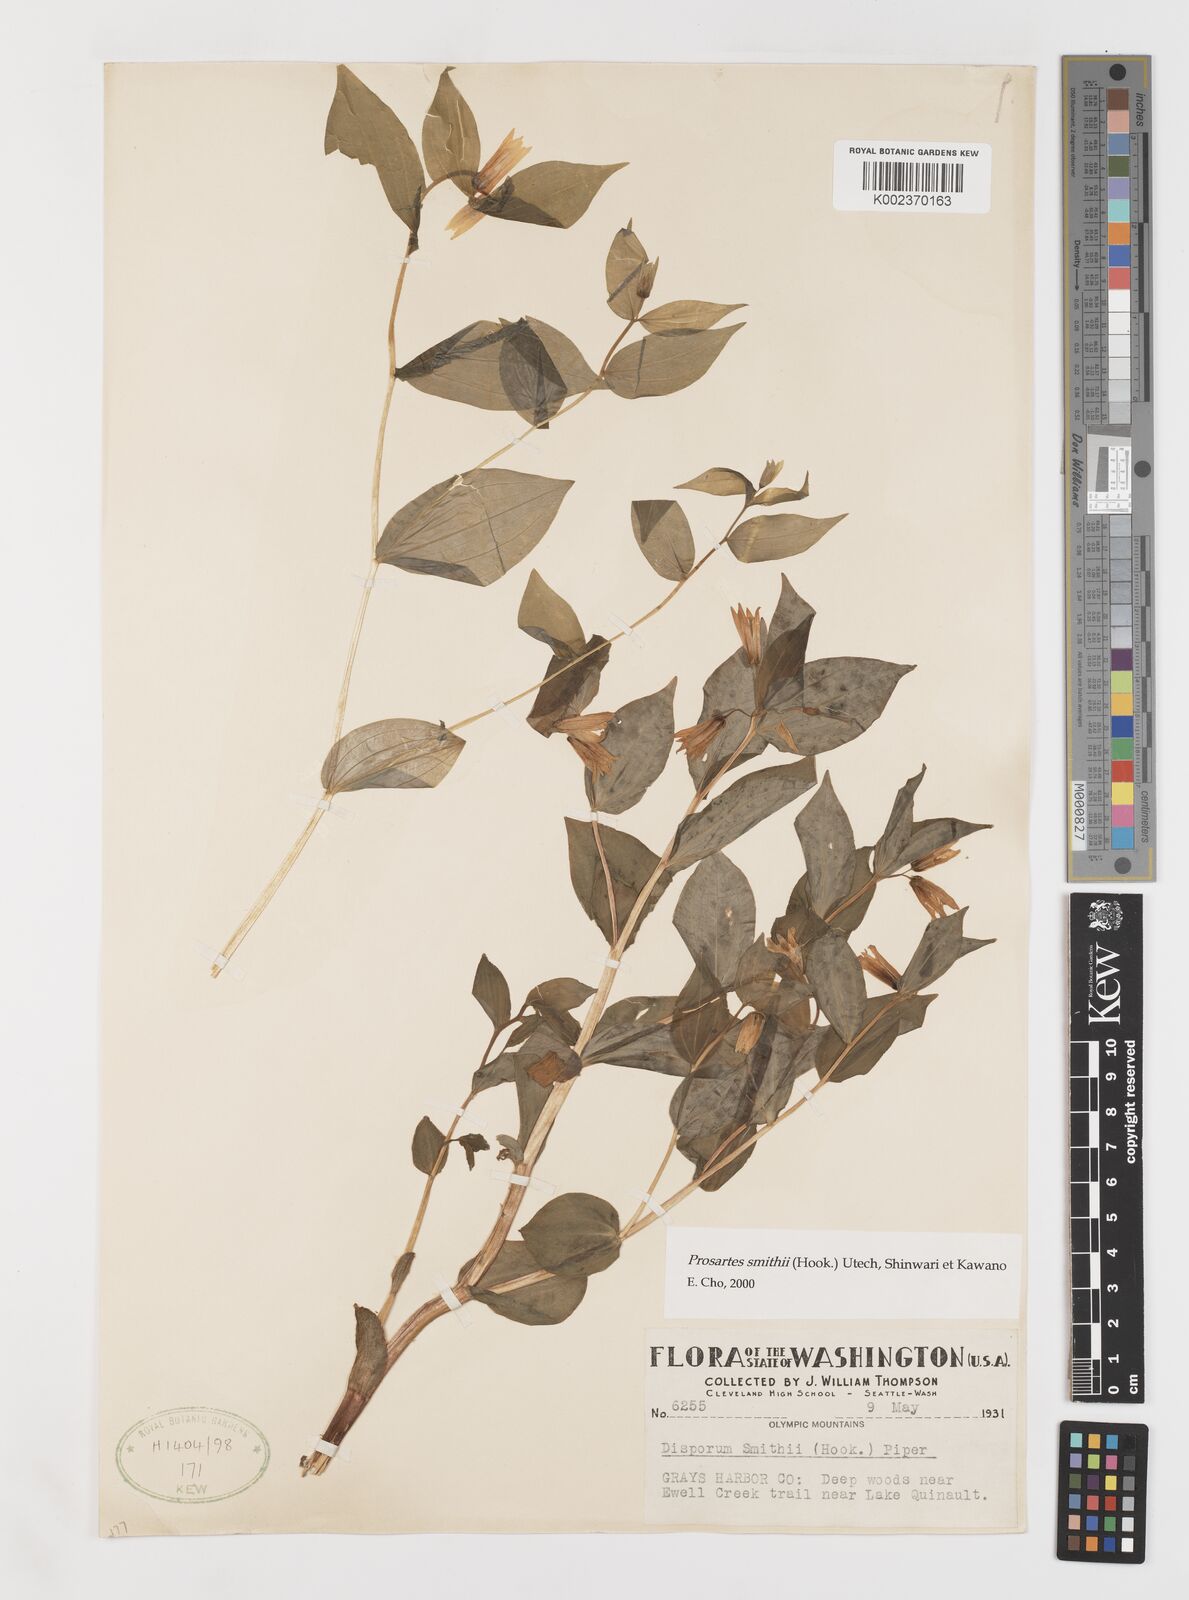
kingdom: Plantae
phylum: Tracheophyta
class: Liliopsida
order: Liliales
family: Liliaceae
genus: Prosartes
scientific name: Prosartes smithii
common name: Fairy-lantern
